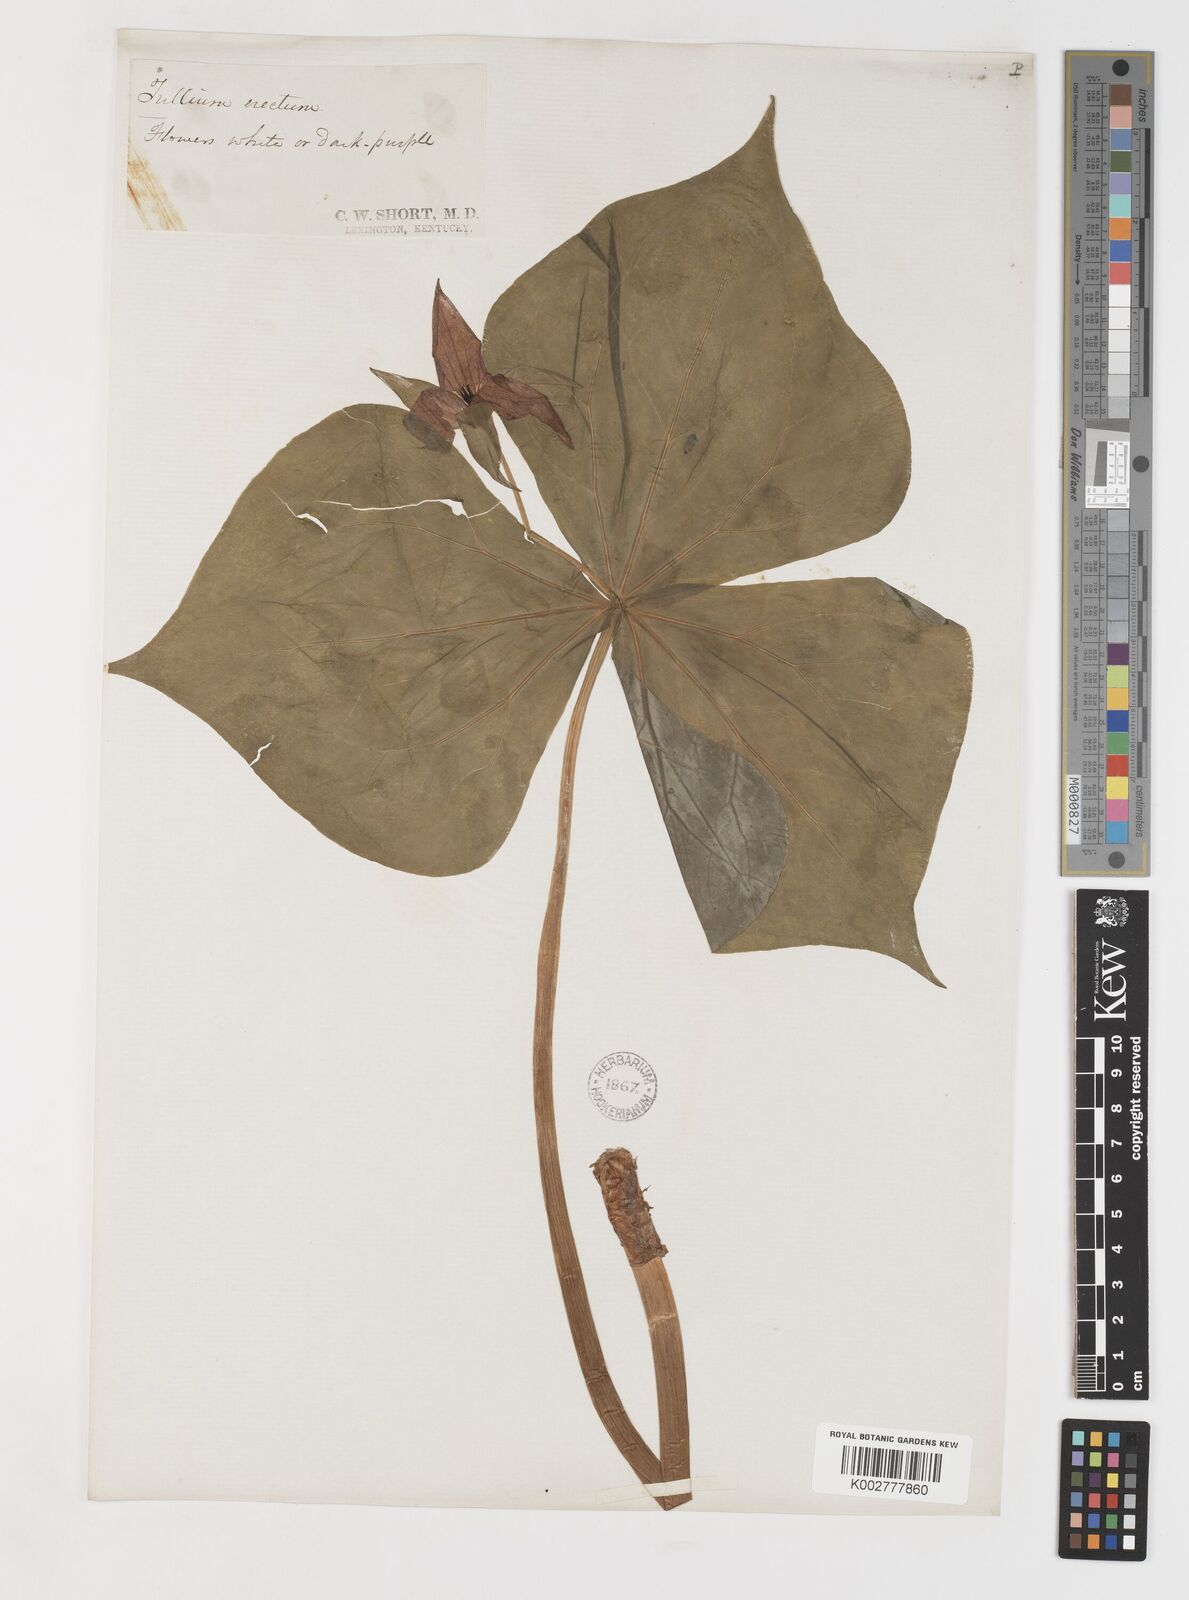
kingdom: Plantae
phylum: Tracheophyta
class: Liliopsida
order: Liliales
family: Melanthiaceae
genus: Trillium
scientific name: Trillium erectum
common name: Purple trillium
